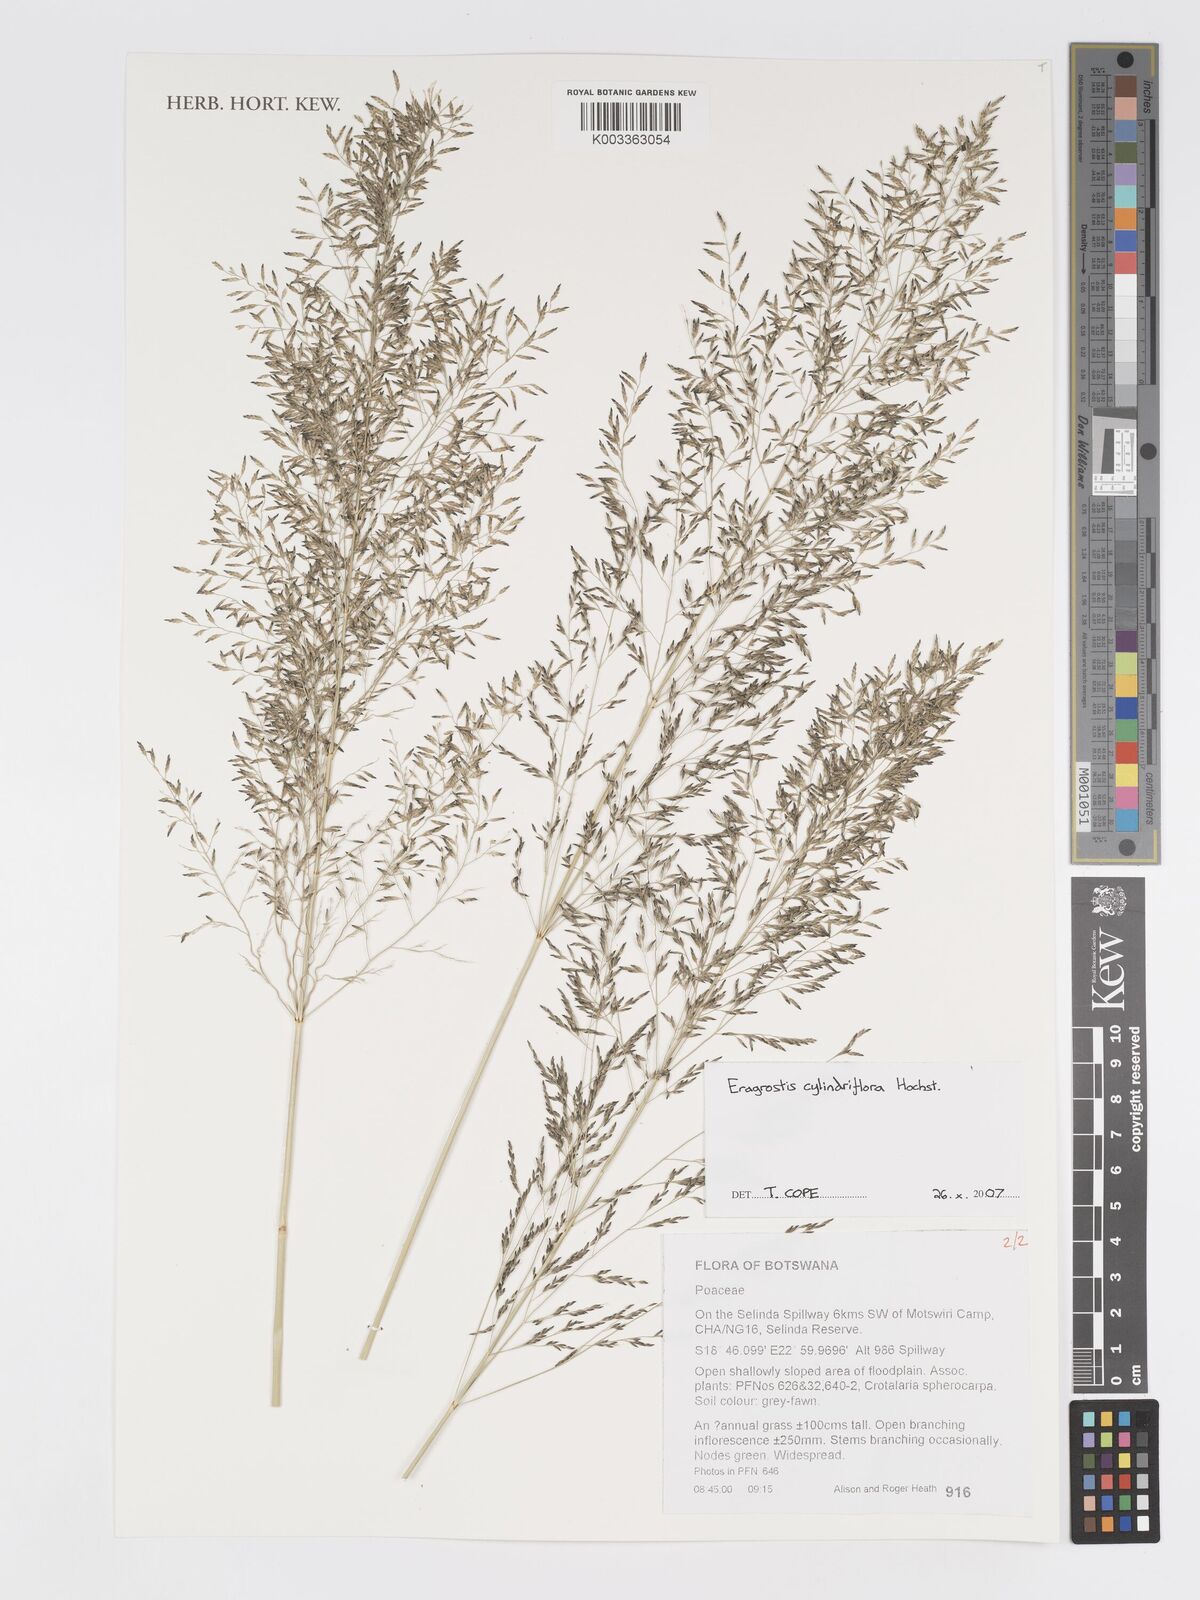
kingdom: Plantae
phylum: Tracheophyta
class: Liliopsida
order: Poales
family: Poaceae
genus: Eragrostis
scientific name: Eragrostis cylindriflora
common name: Cylinderflower lovegrass
